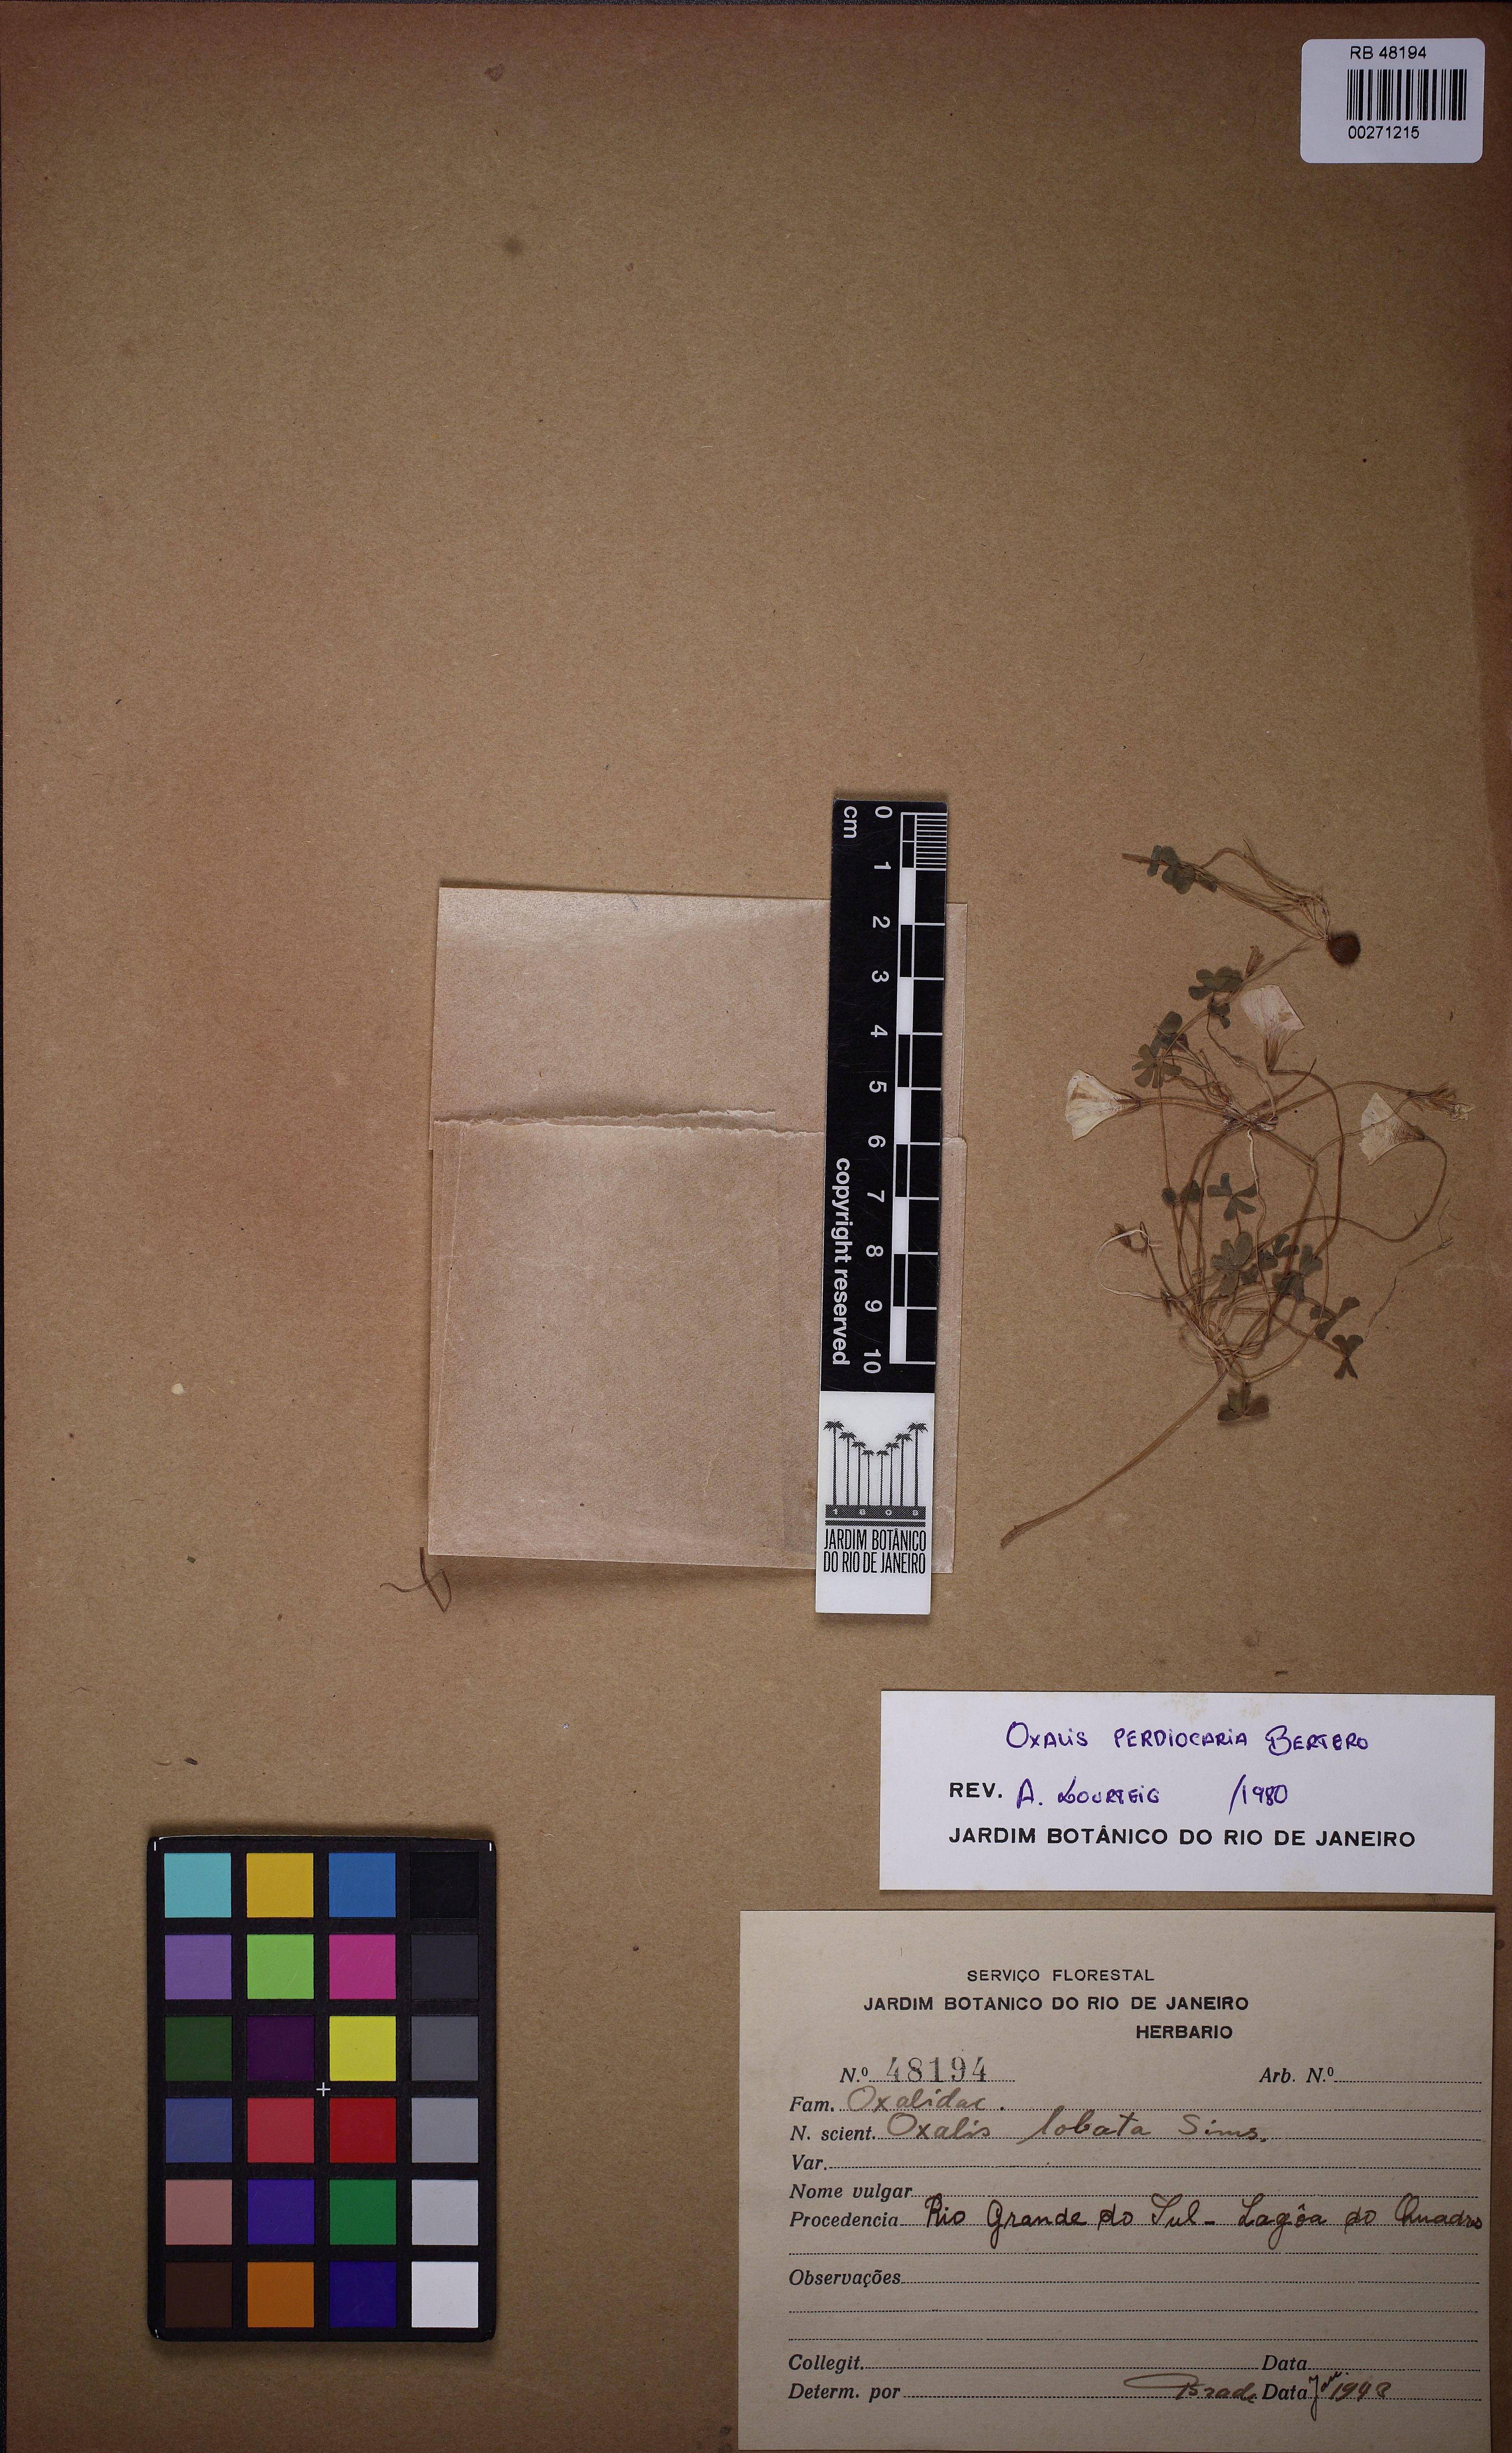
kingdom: Plantae
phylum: Tracheophyta
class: Magnoliopsida
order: Oxalidales
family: Oxalidaceae
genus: Oxalis
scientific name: Oxalis perdicaria
